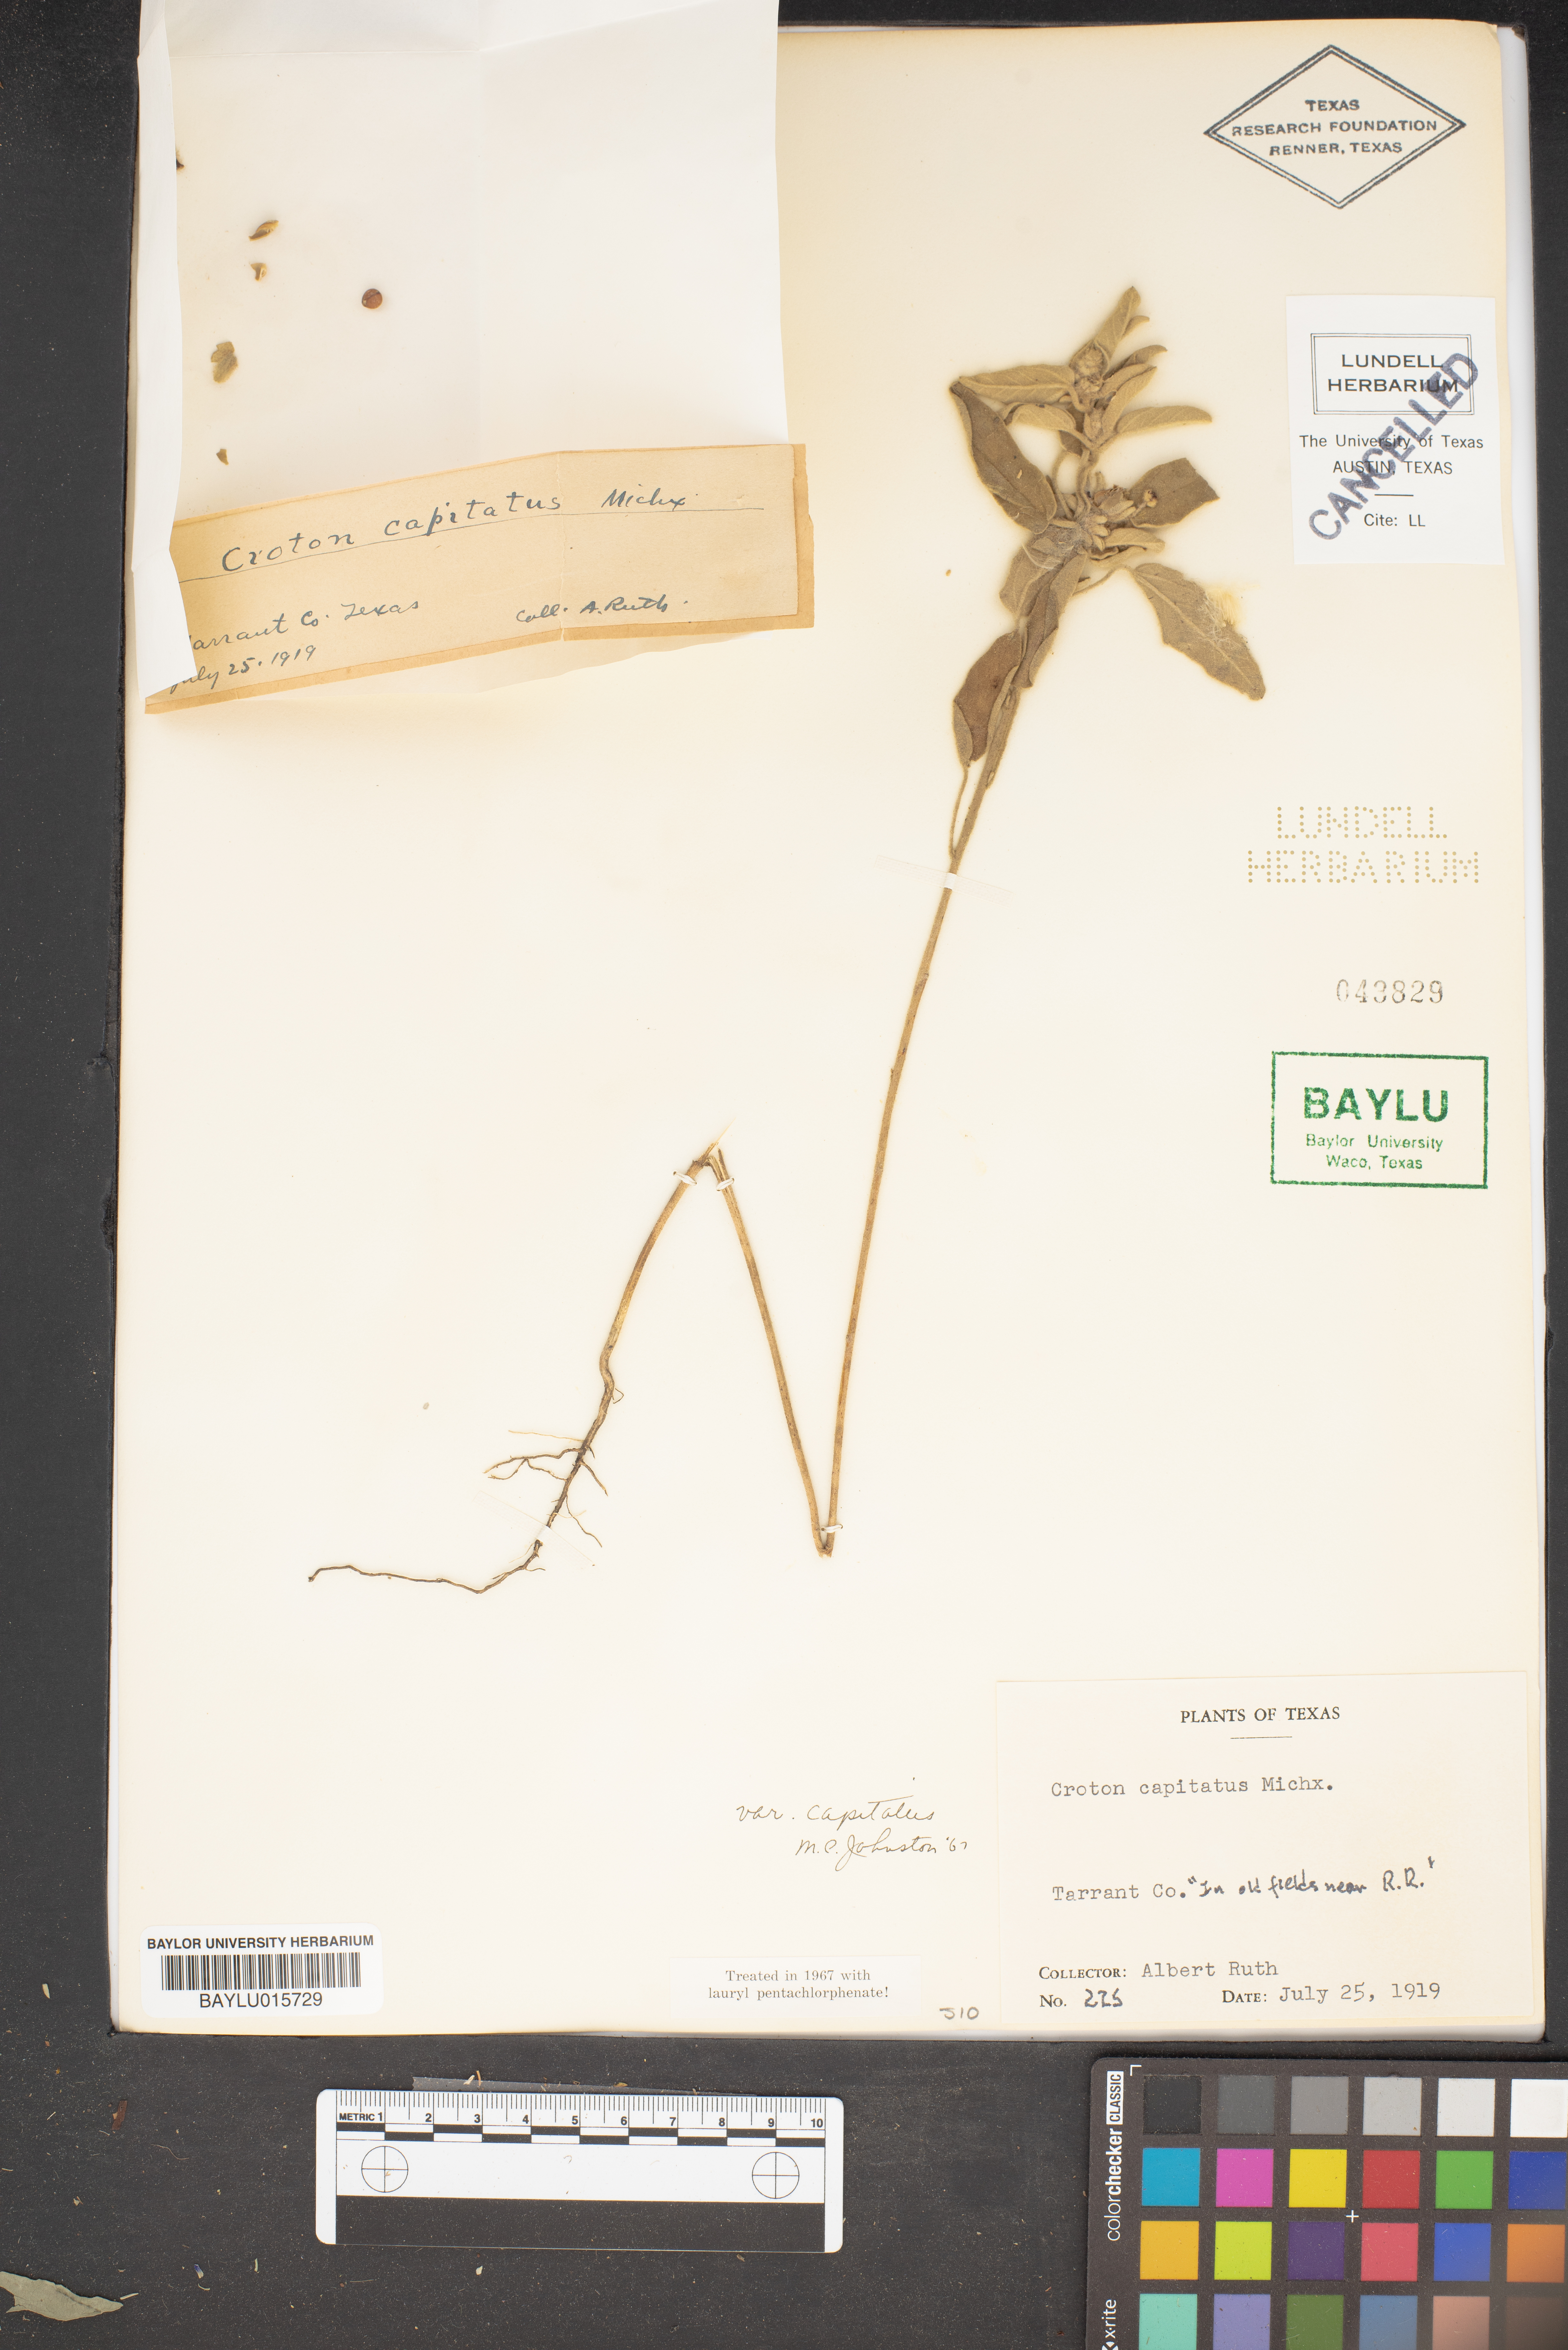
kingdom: Plantae
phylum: Tracheophyta
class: Magnoliopsida
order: Malpighiales
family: Euphorbiaceae
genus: Croton
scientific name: Croton capitatus
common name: Woolly croton
